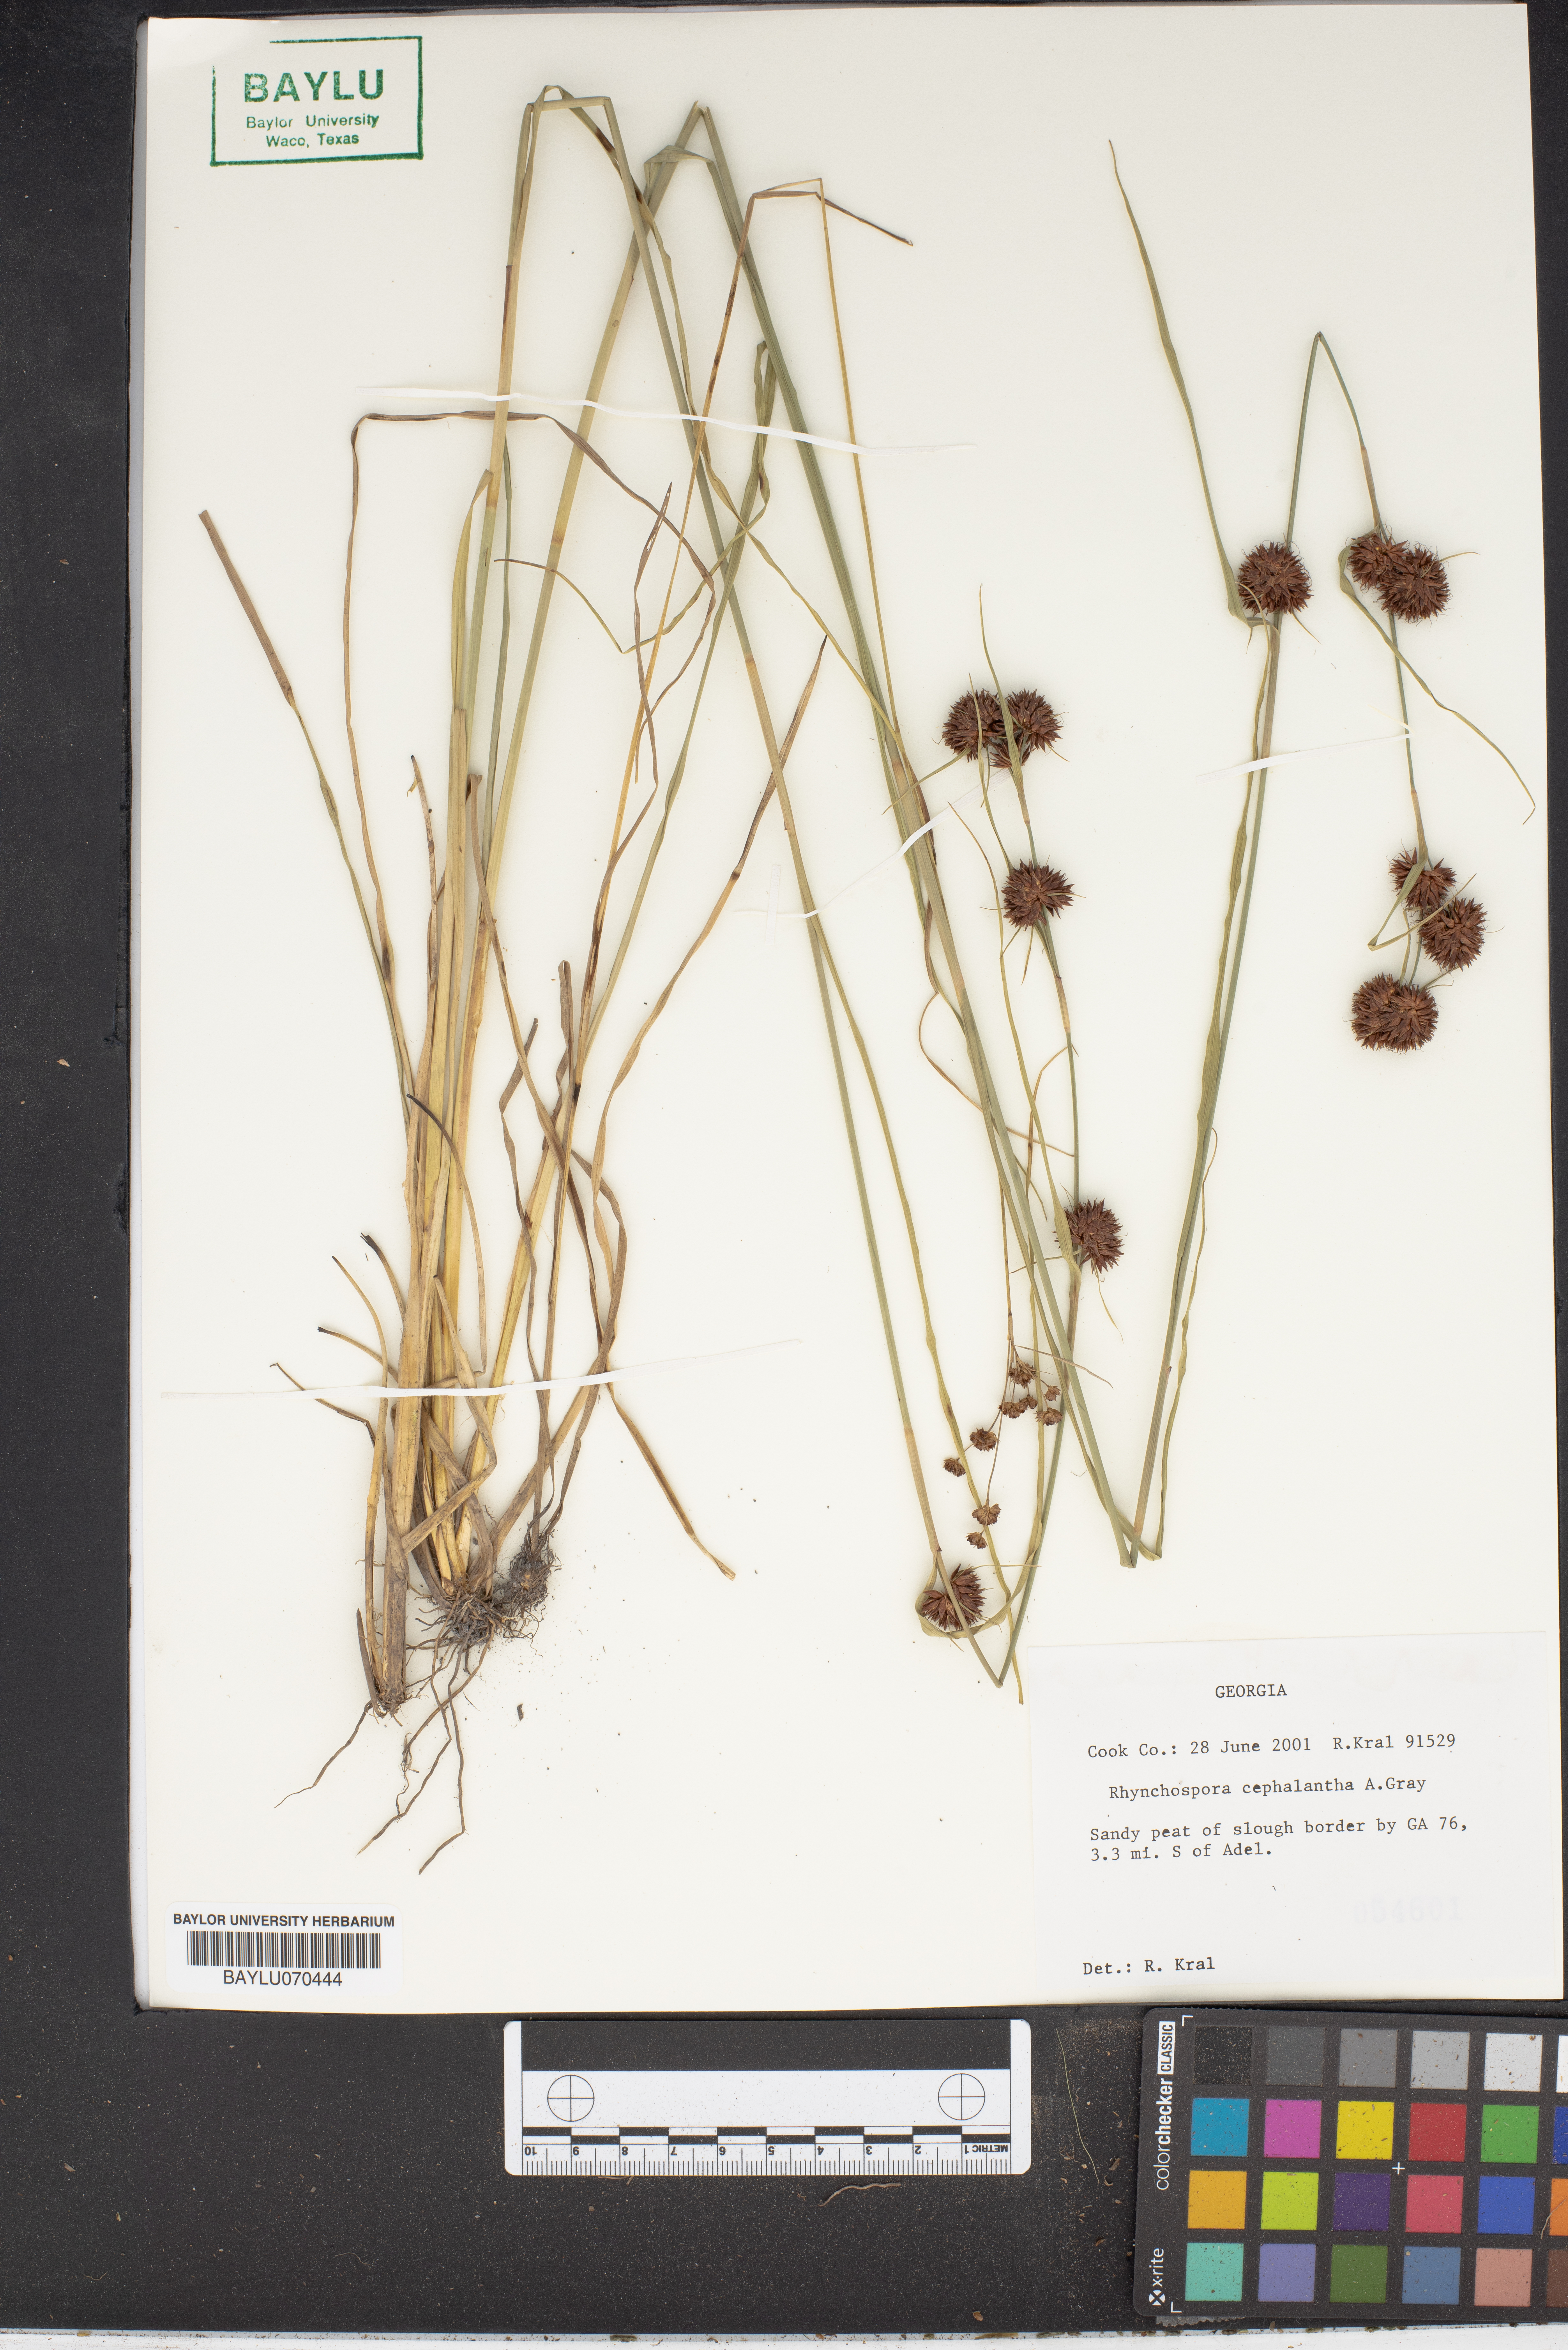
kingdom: Plantae
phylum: Tracheophyta
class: Liliopsida
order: Poales
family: Cyperaceae
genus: Rhynchospora
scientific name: Rhynchospora cephalantha
